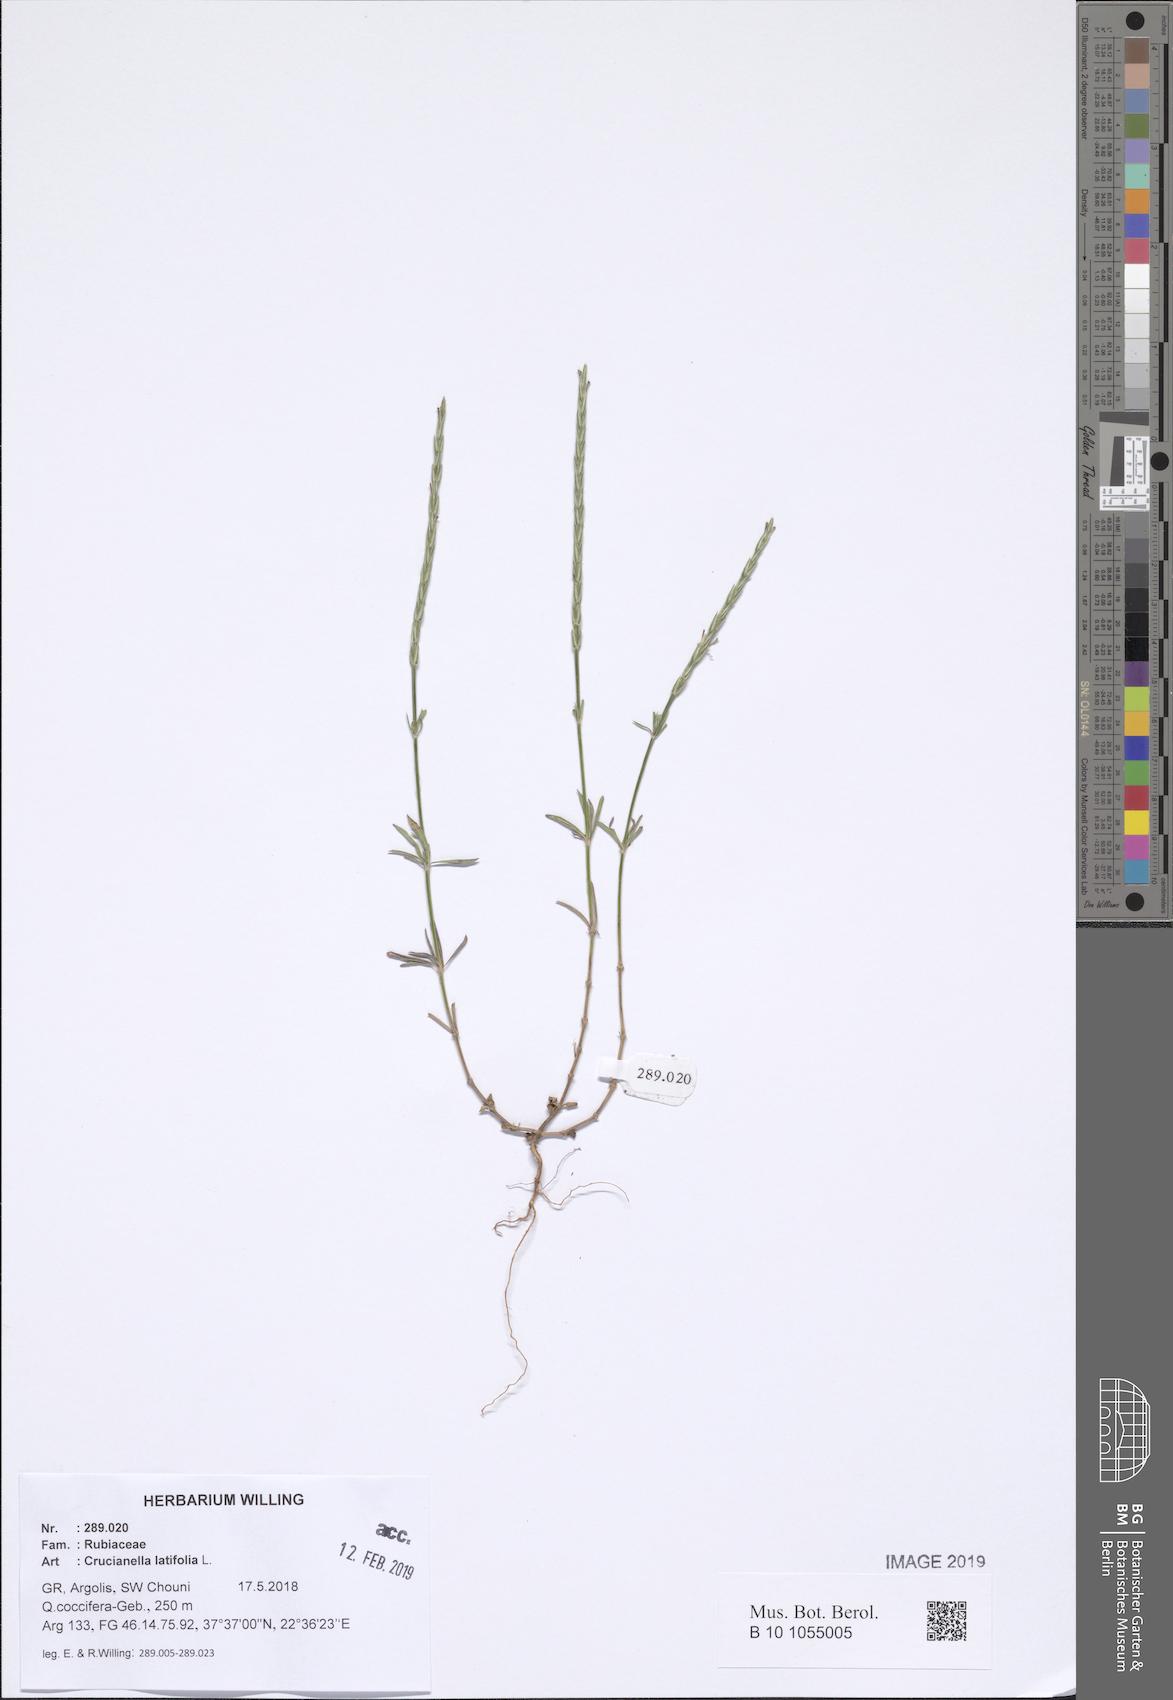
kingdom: Plantae
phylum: Tracheophyta
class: Magnoliopsida
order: Gentianales
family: Rubiaceae
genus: Crucianella
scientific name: Crucianella latifolia
